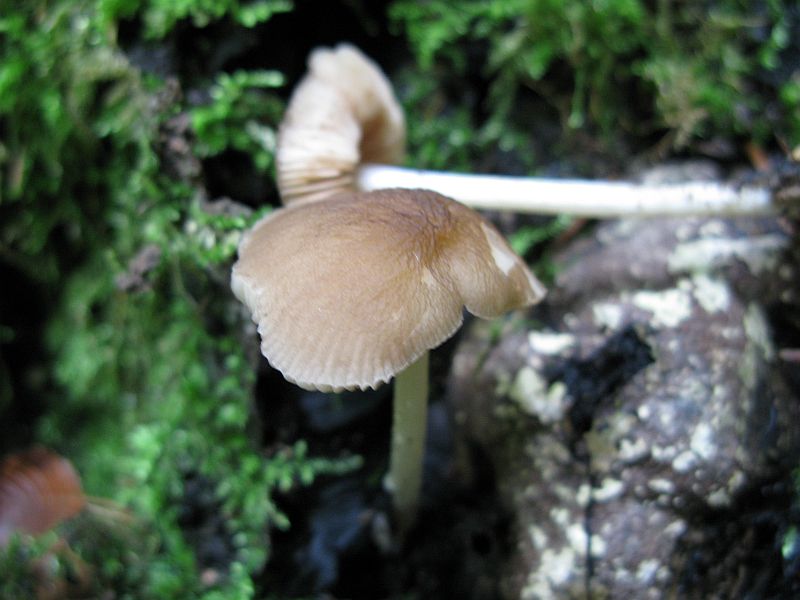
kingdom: Fungi
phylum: Basidiomycota
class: Agaricomycetes
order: Agaricales
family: Pluteaceae
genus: Pluteus
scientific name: Pluteus phlebophorus
